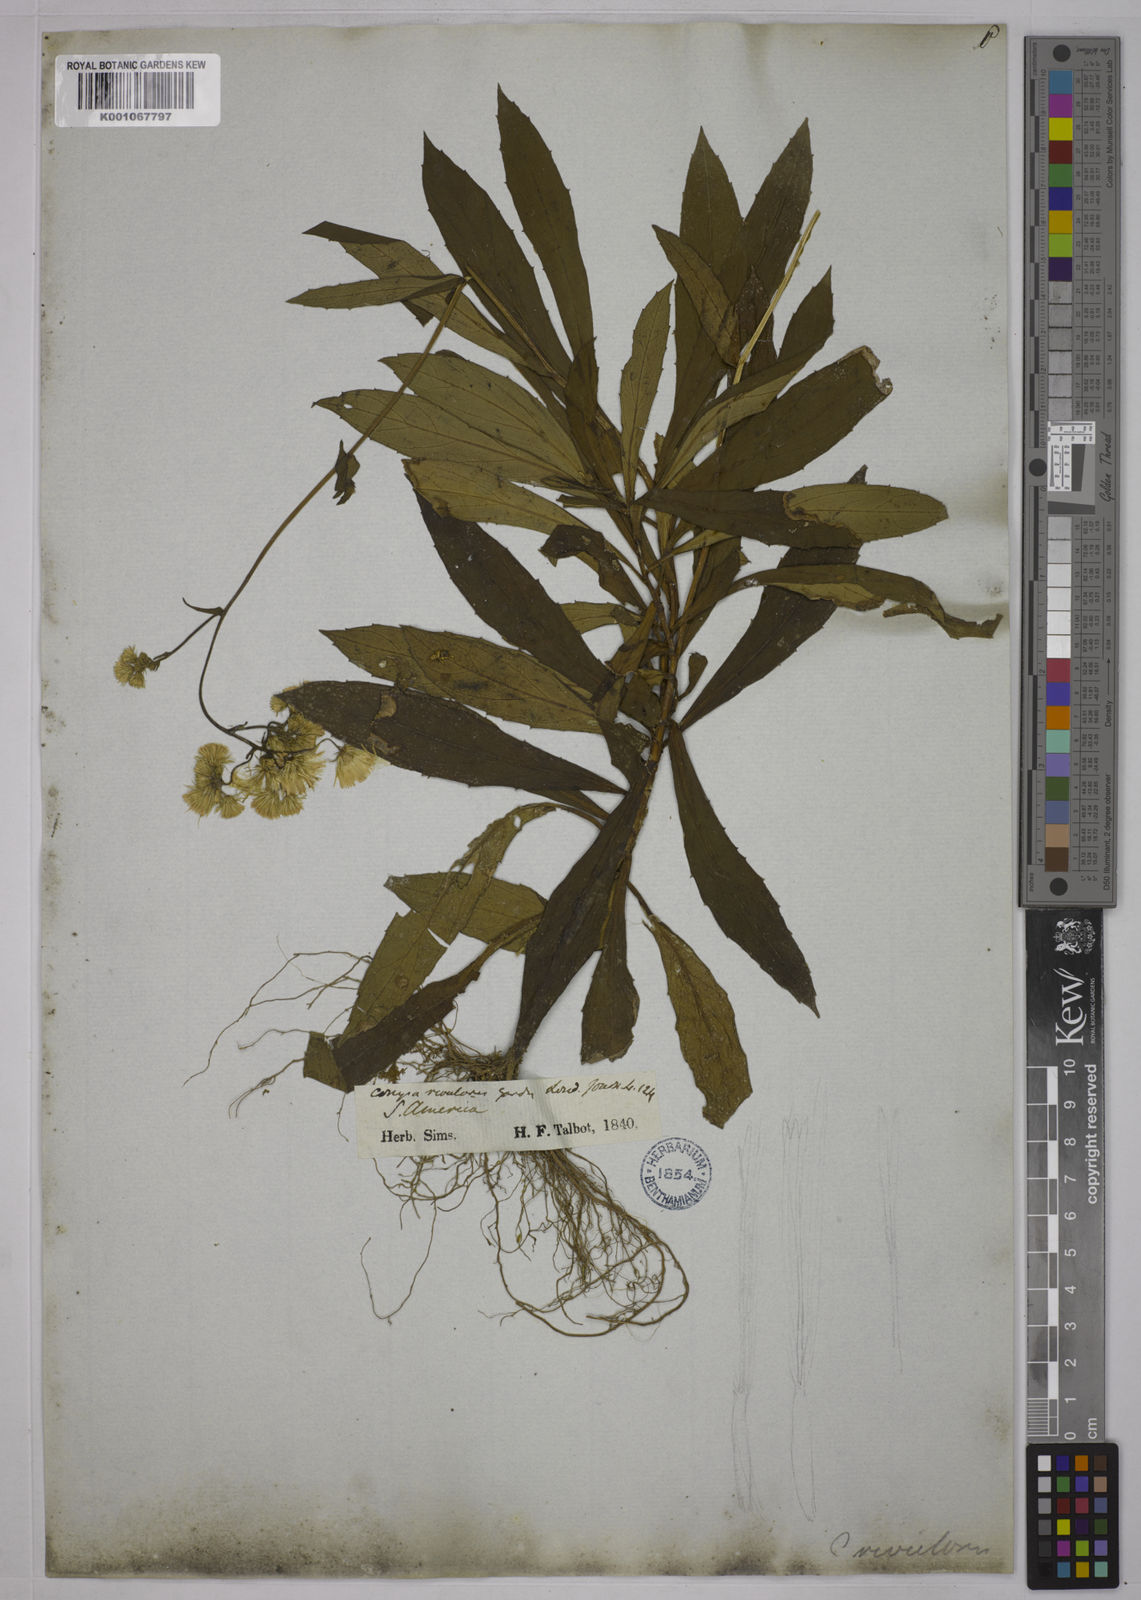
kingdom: Plantae
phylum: Tracheophyta
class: Magnoliopsida
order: Asterales
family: Asteraceae
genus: Exostigma
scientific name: Exostigma rivulare
